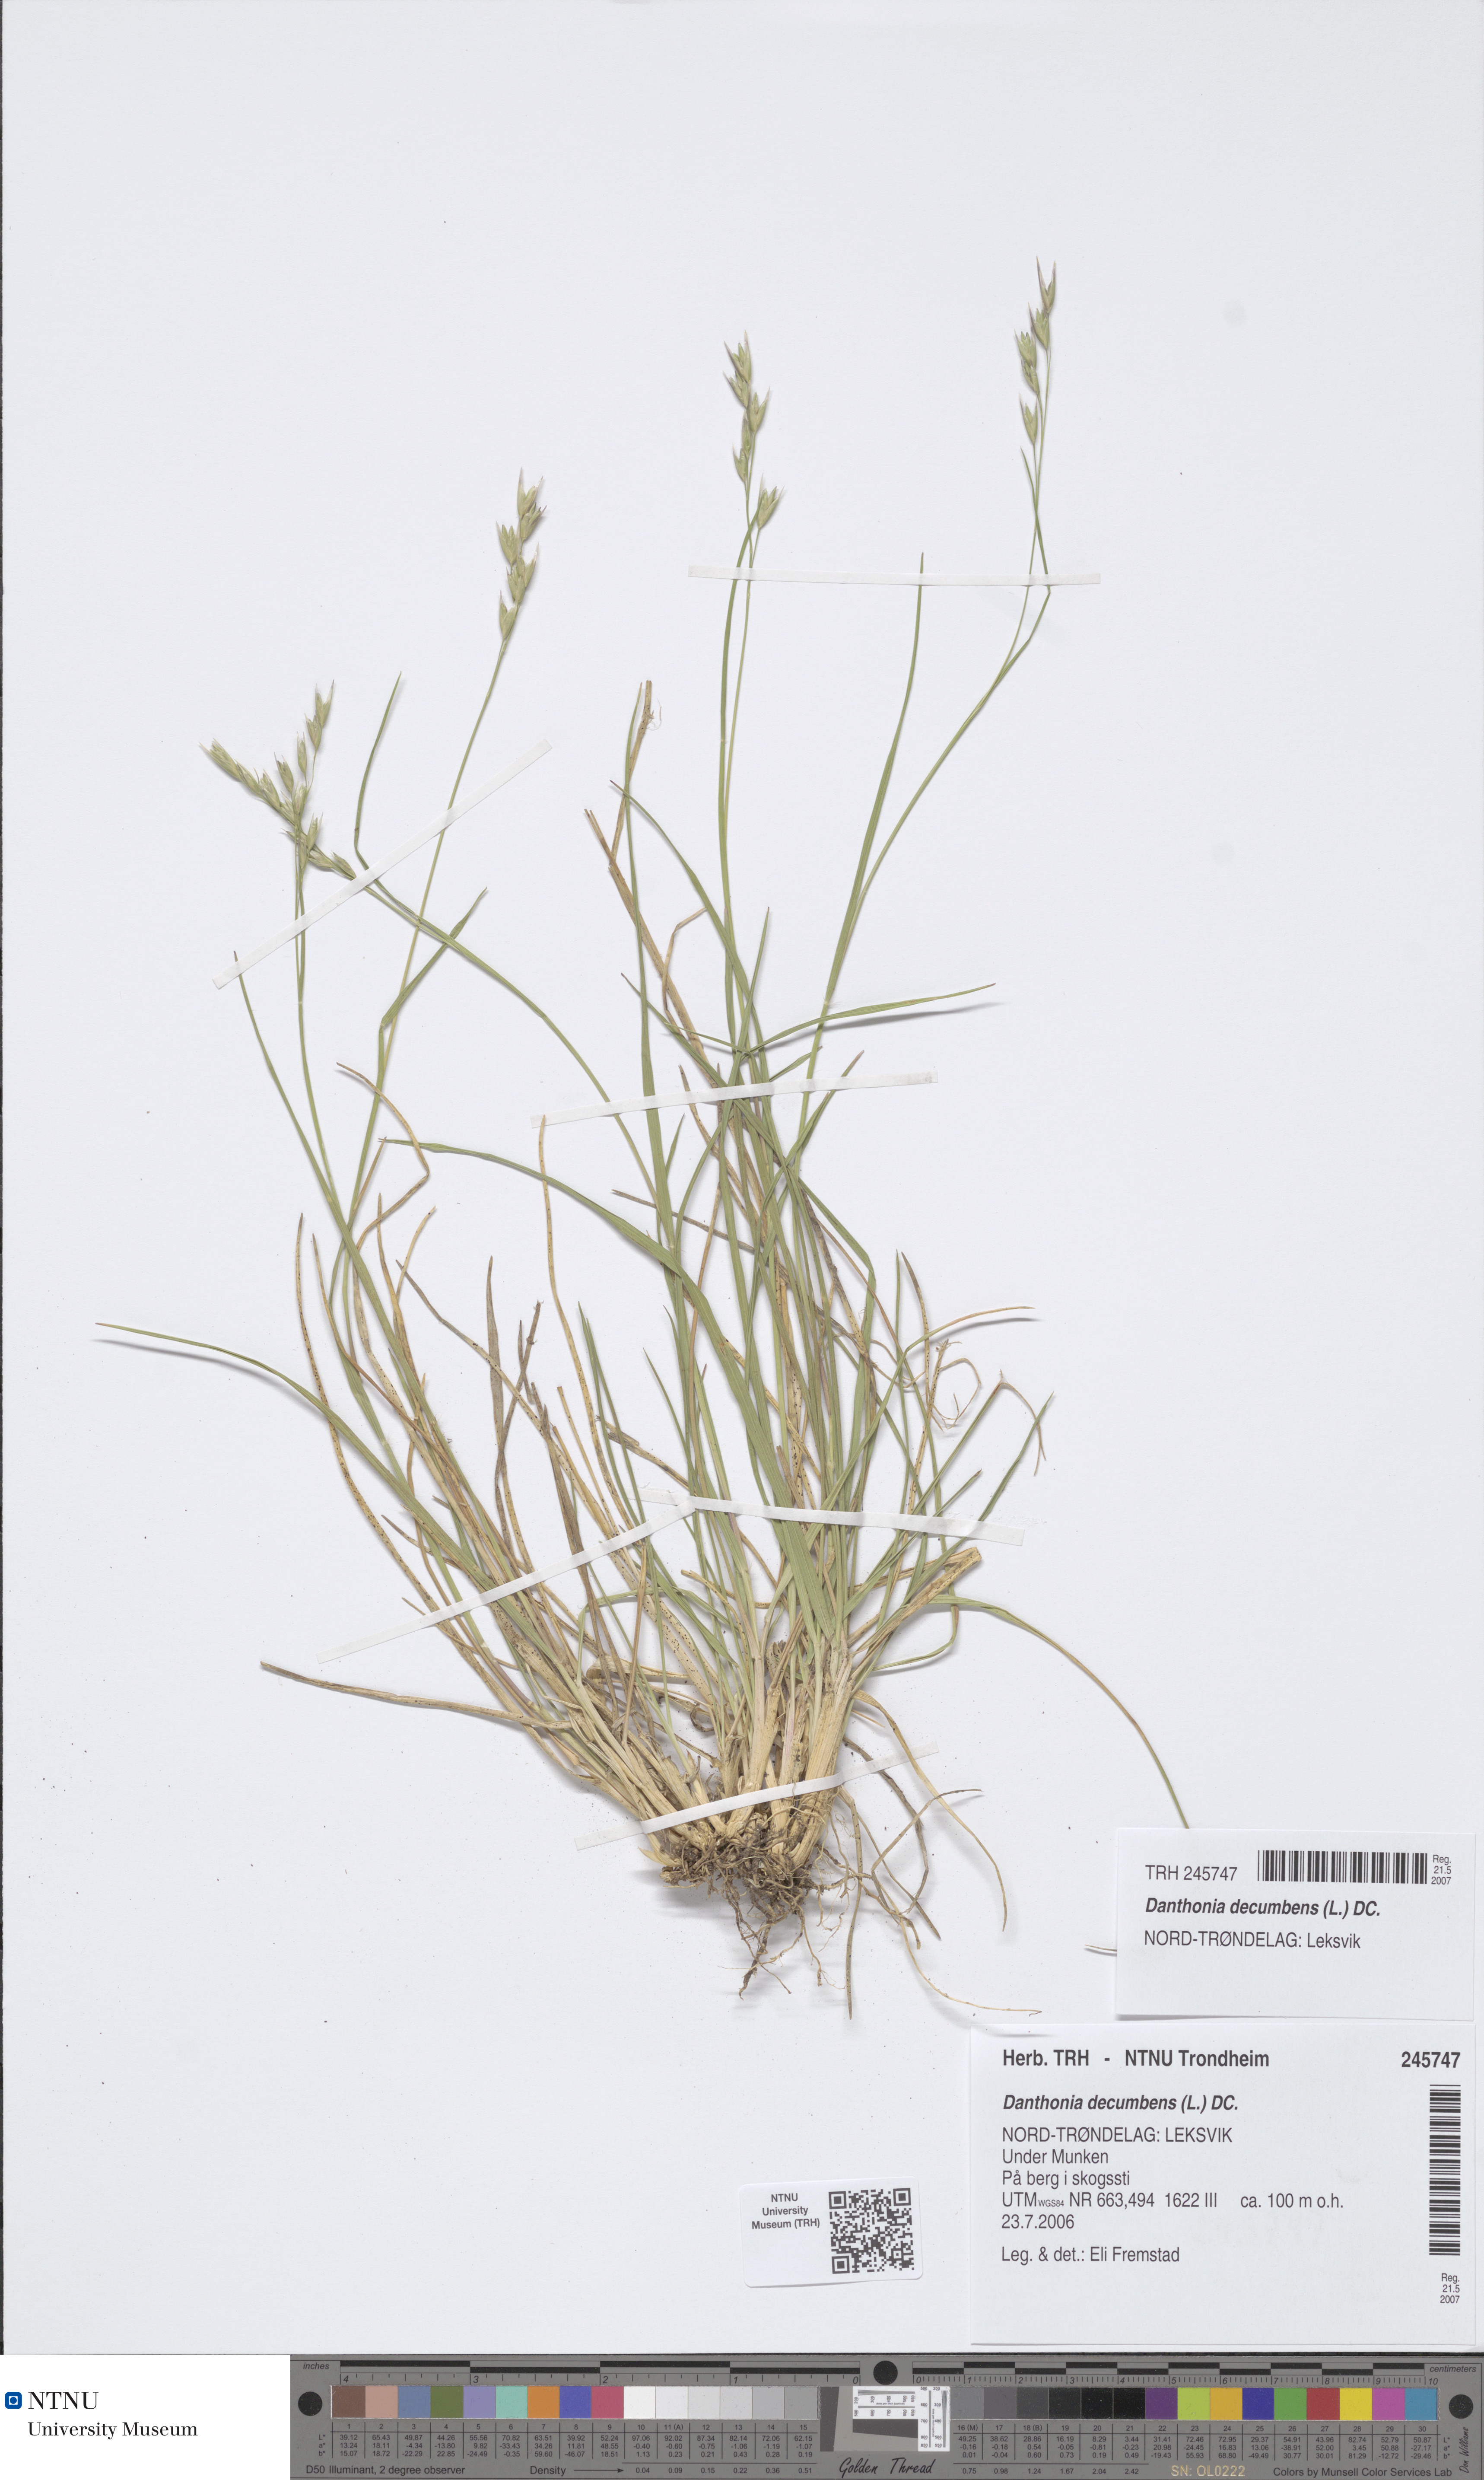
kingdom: Plantae
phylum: Tracheophyta
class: Liliopsida
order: Poales
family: Poaceae
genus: Danthonia
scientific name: Danthonia decumbens
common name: Common heathgrass
